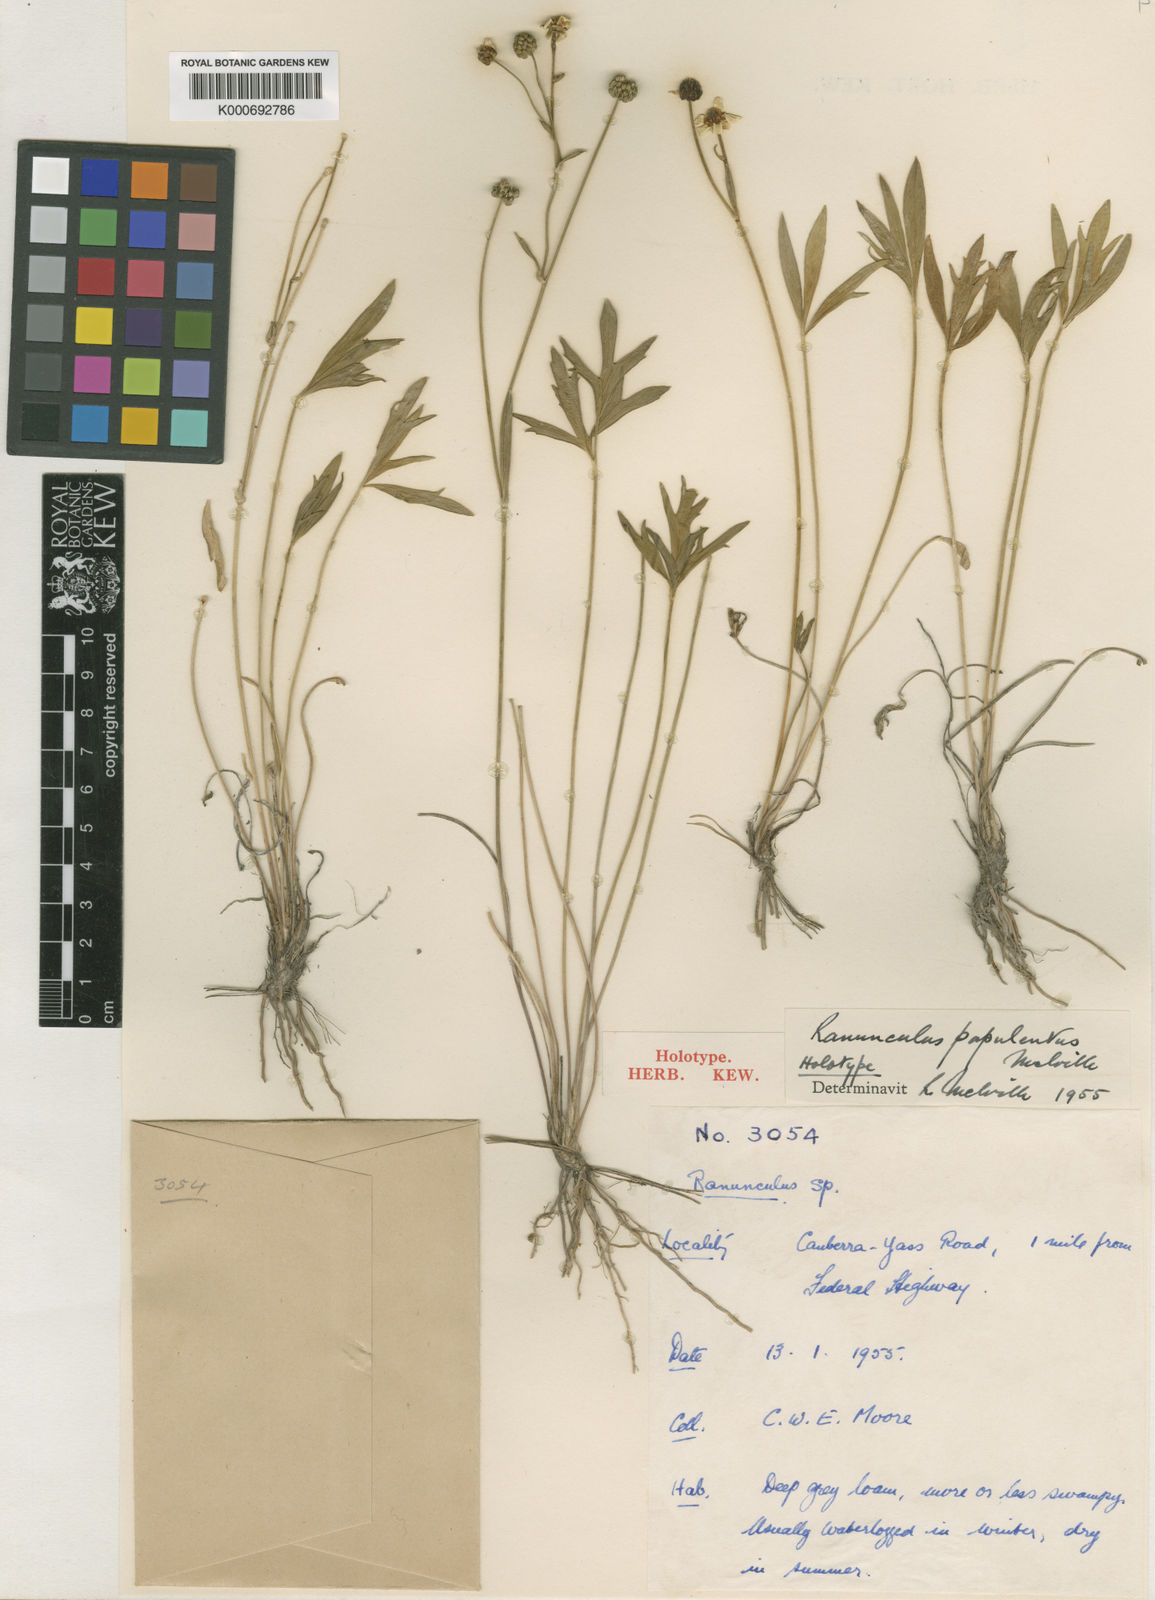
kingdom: Plantae
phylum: Tracheophyta
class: Magnoliopsida
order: Ranunculales
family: Ranunculaceae
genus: Ranunculus
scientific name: Ranunculus papulentus
